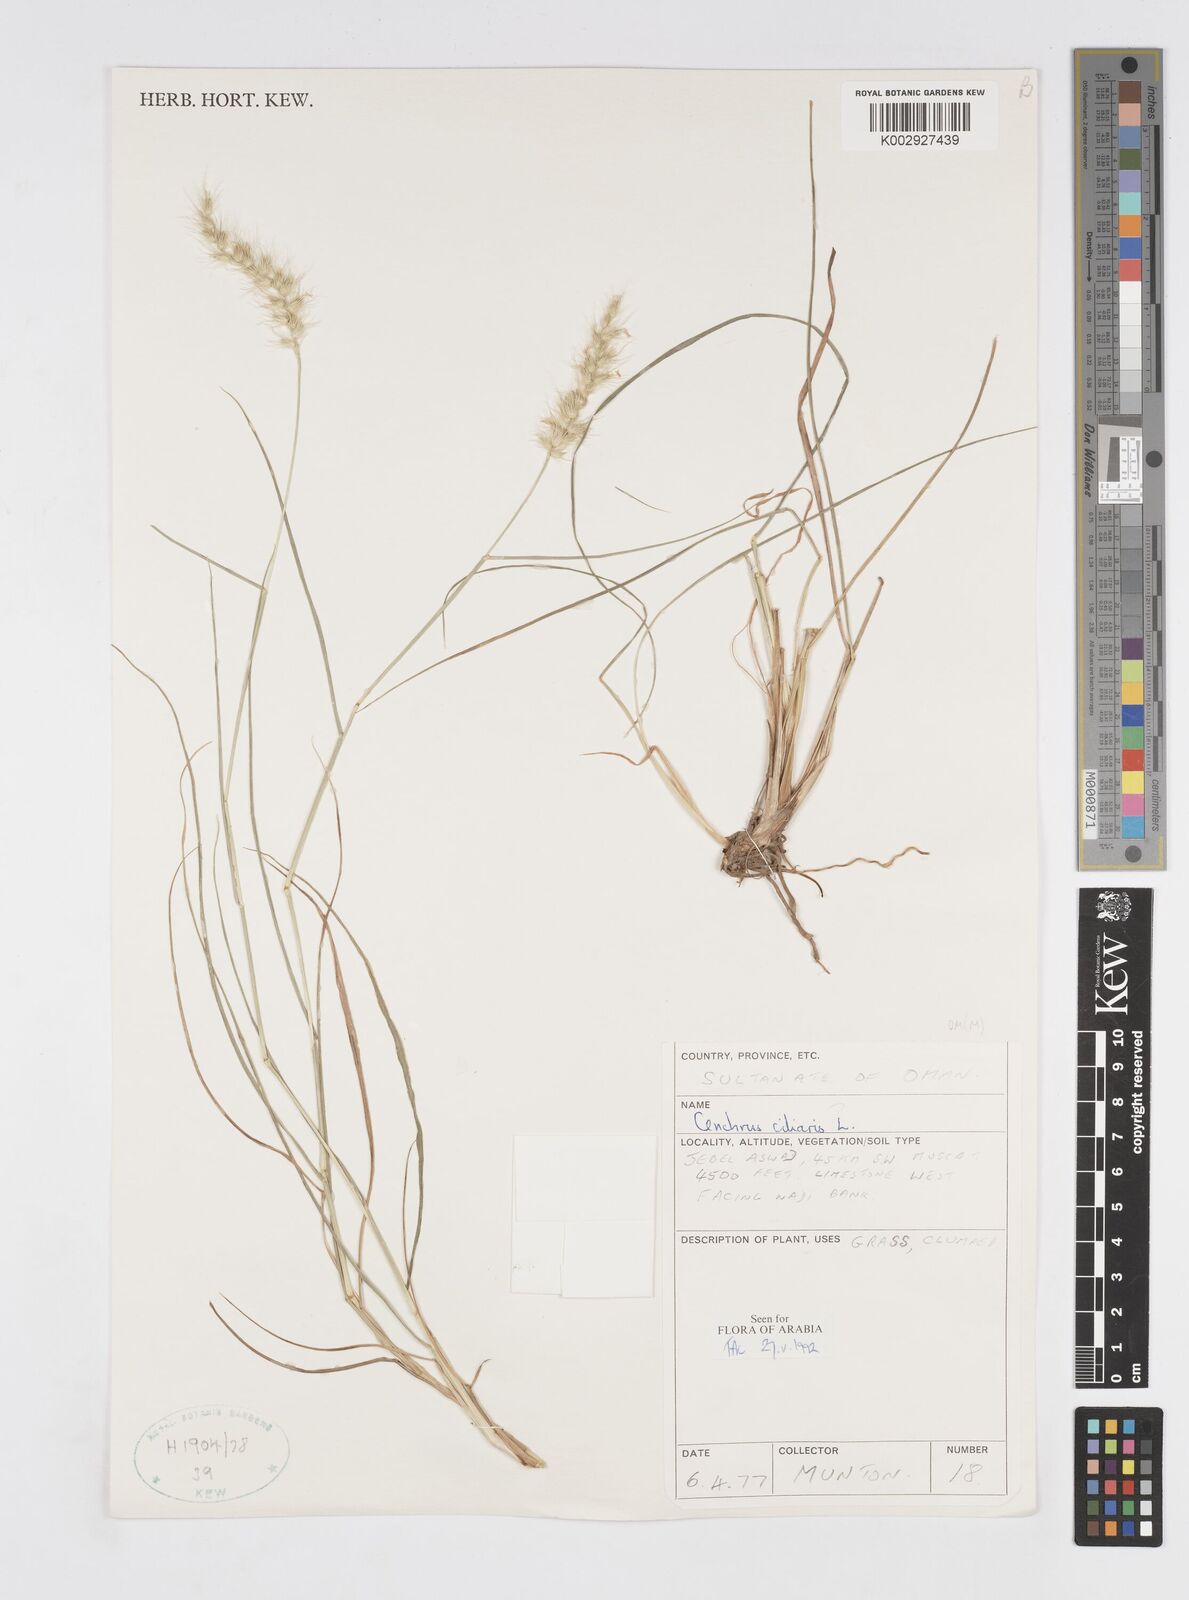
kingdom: Plantae
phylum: Tracheophyta
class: Liliopsida
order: Poales
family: Poaceae
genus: Cenchrus
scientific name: Cenchrus ciliaris
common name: Buffelgrass
